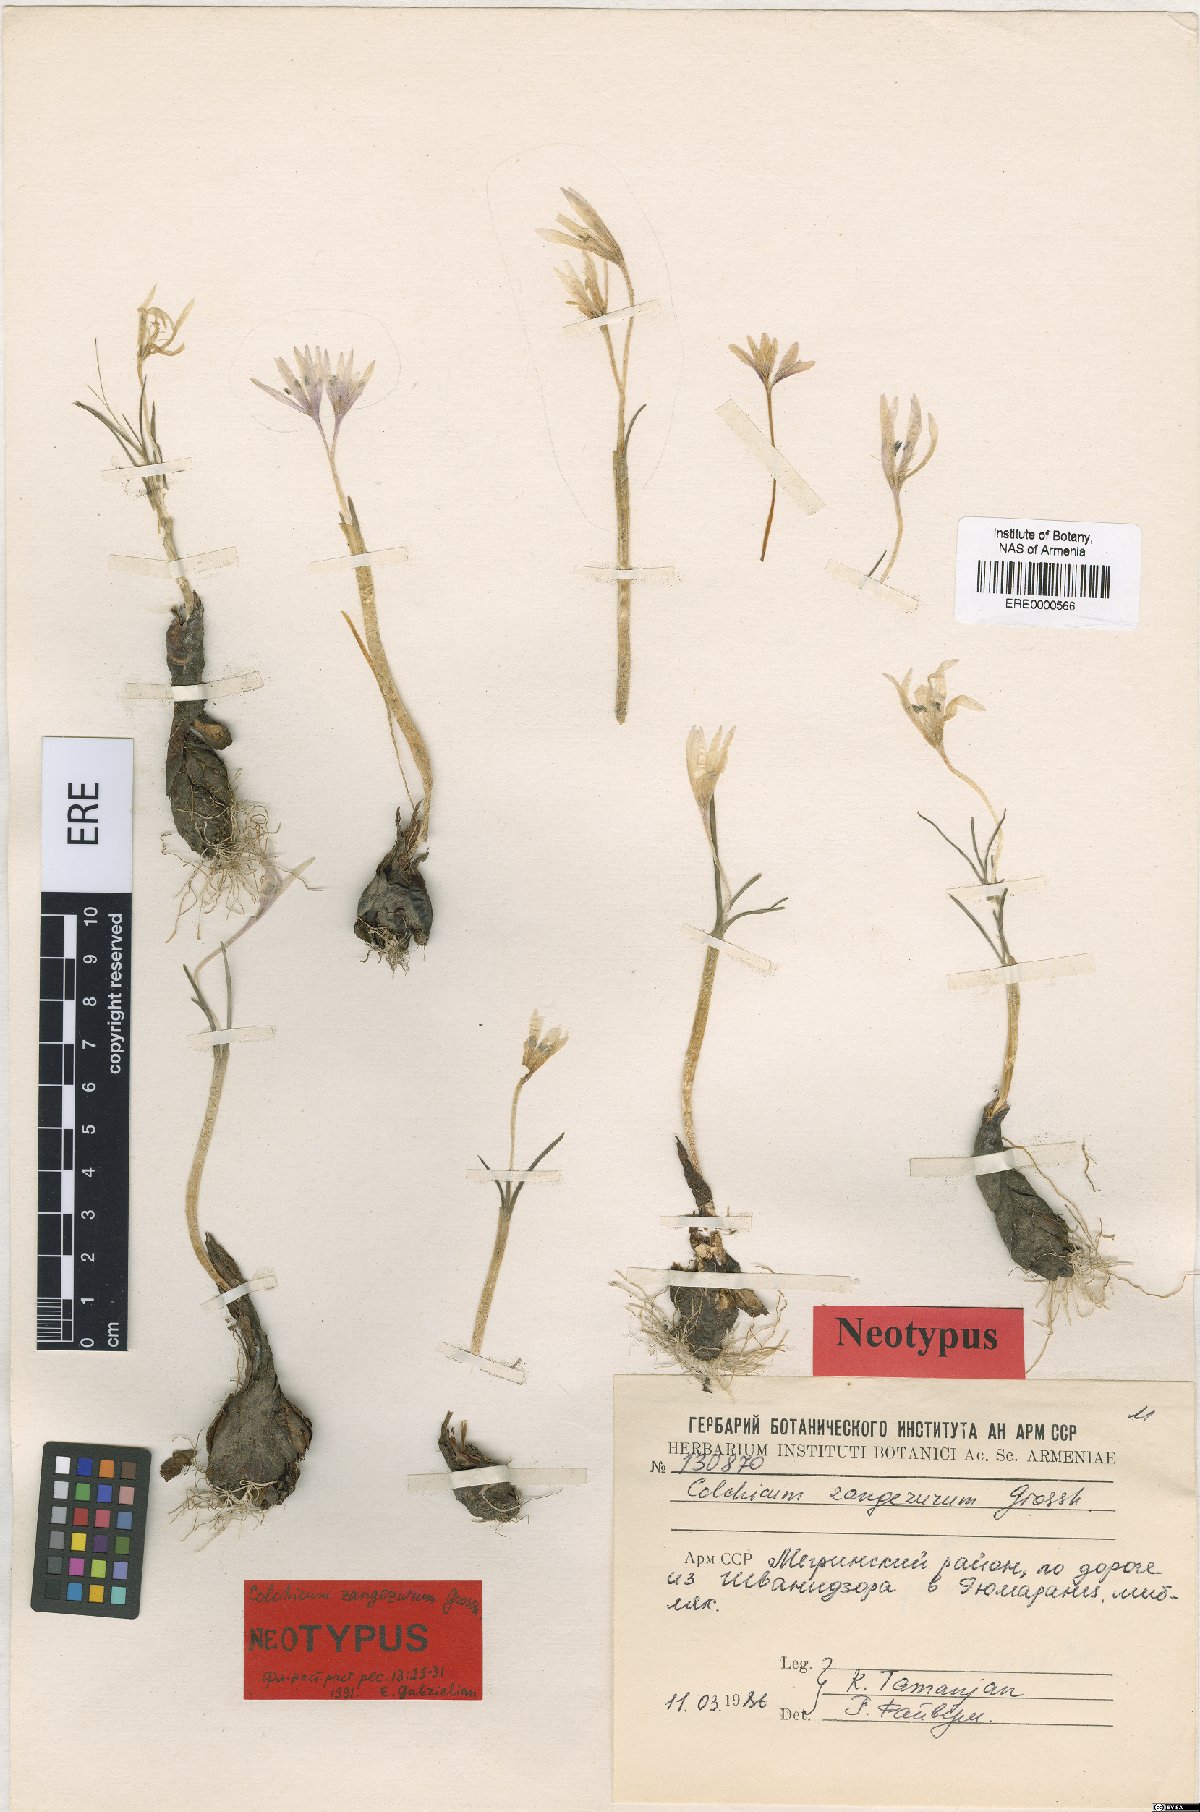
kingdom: Plantae
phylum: Tracheophyta
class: Liliopsida
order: Liliales
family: Colchicaceae
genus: Colchicum
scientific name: Colchicum freynii
